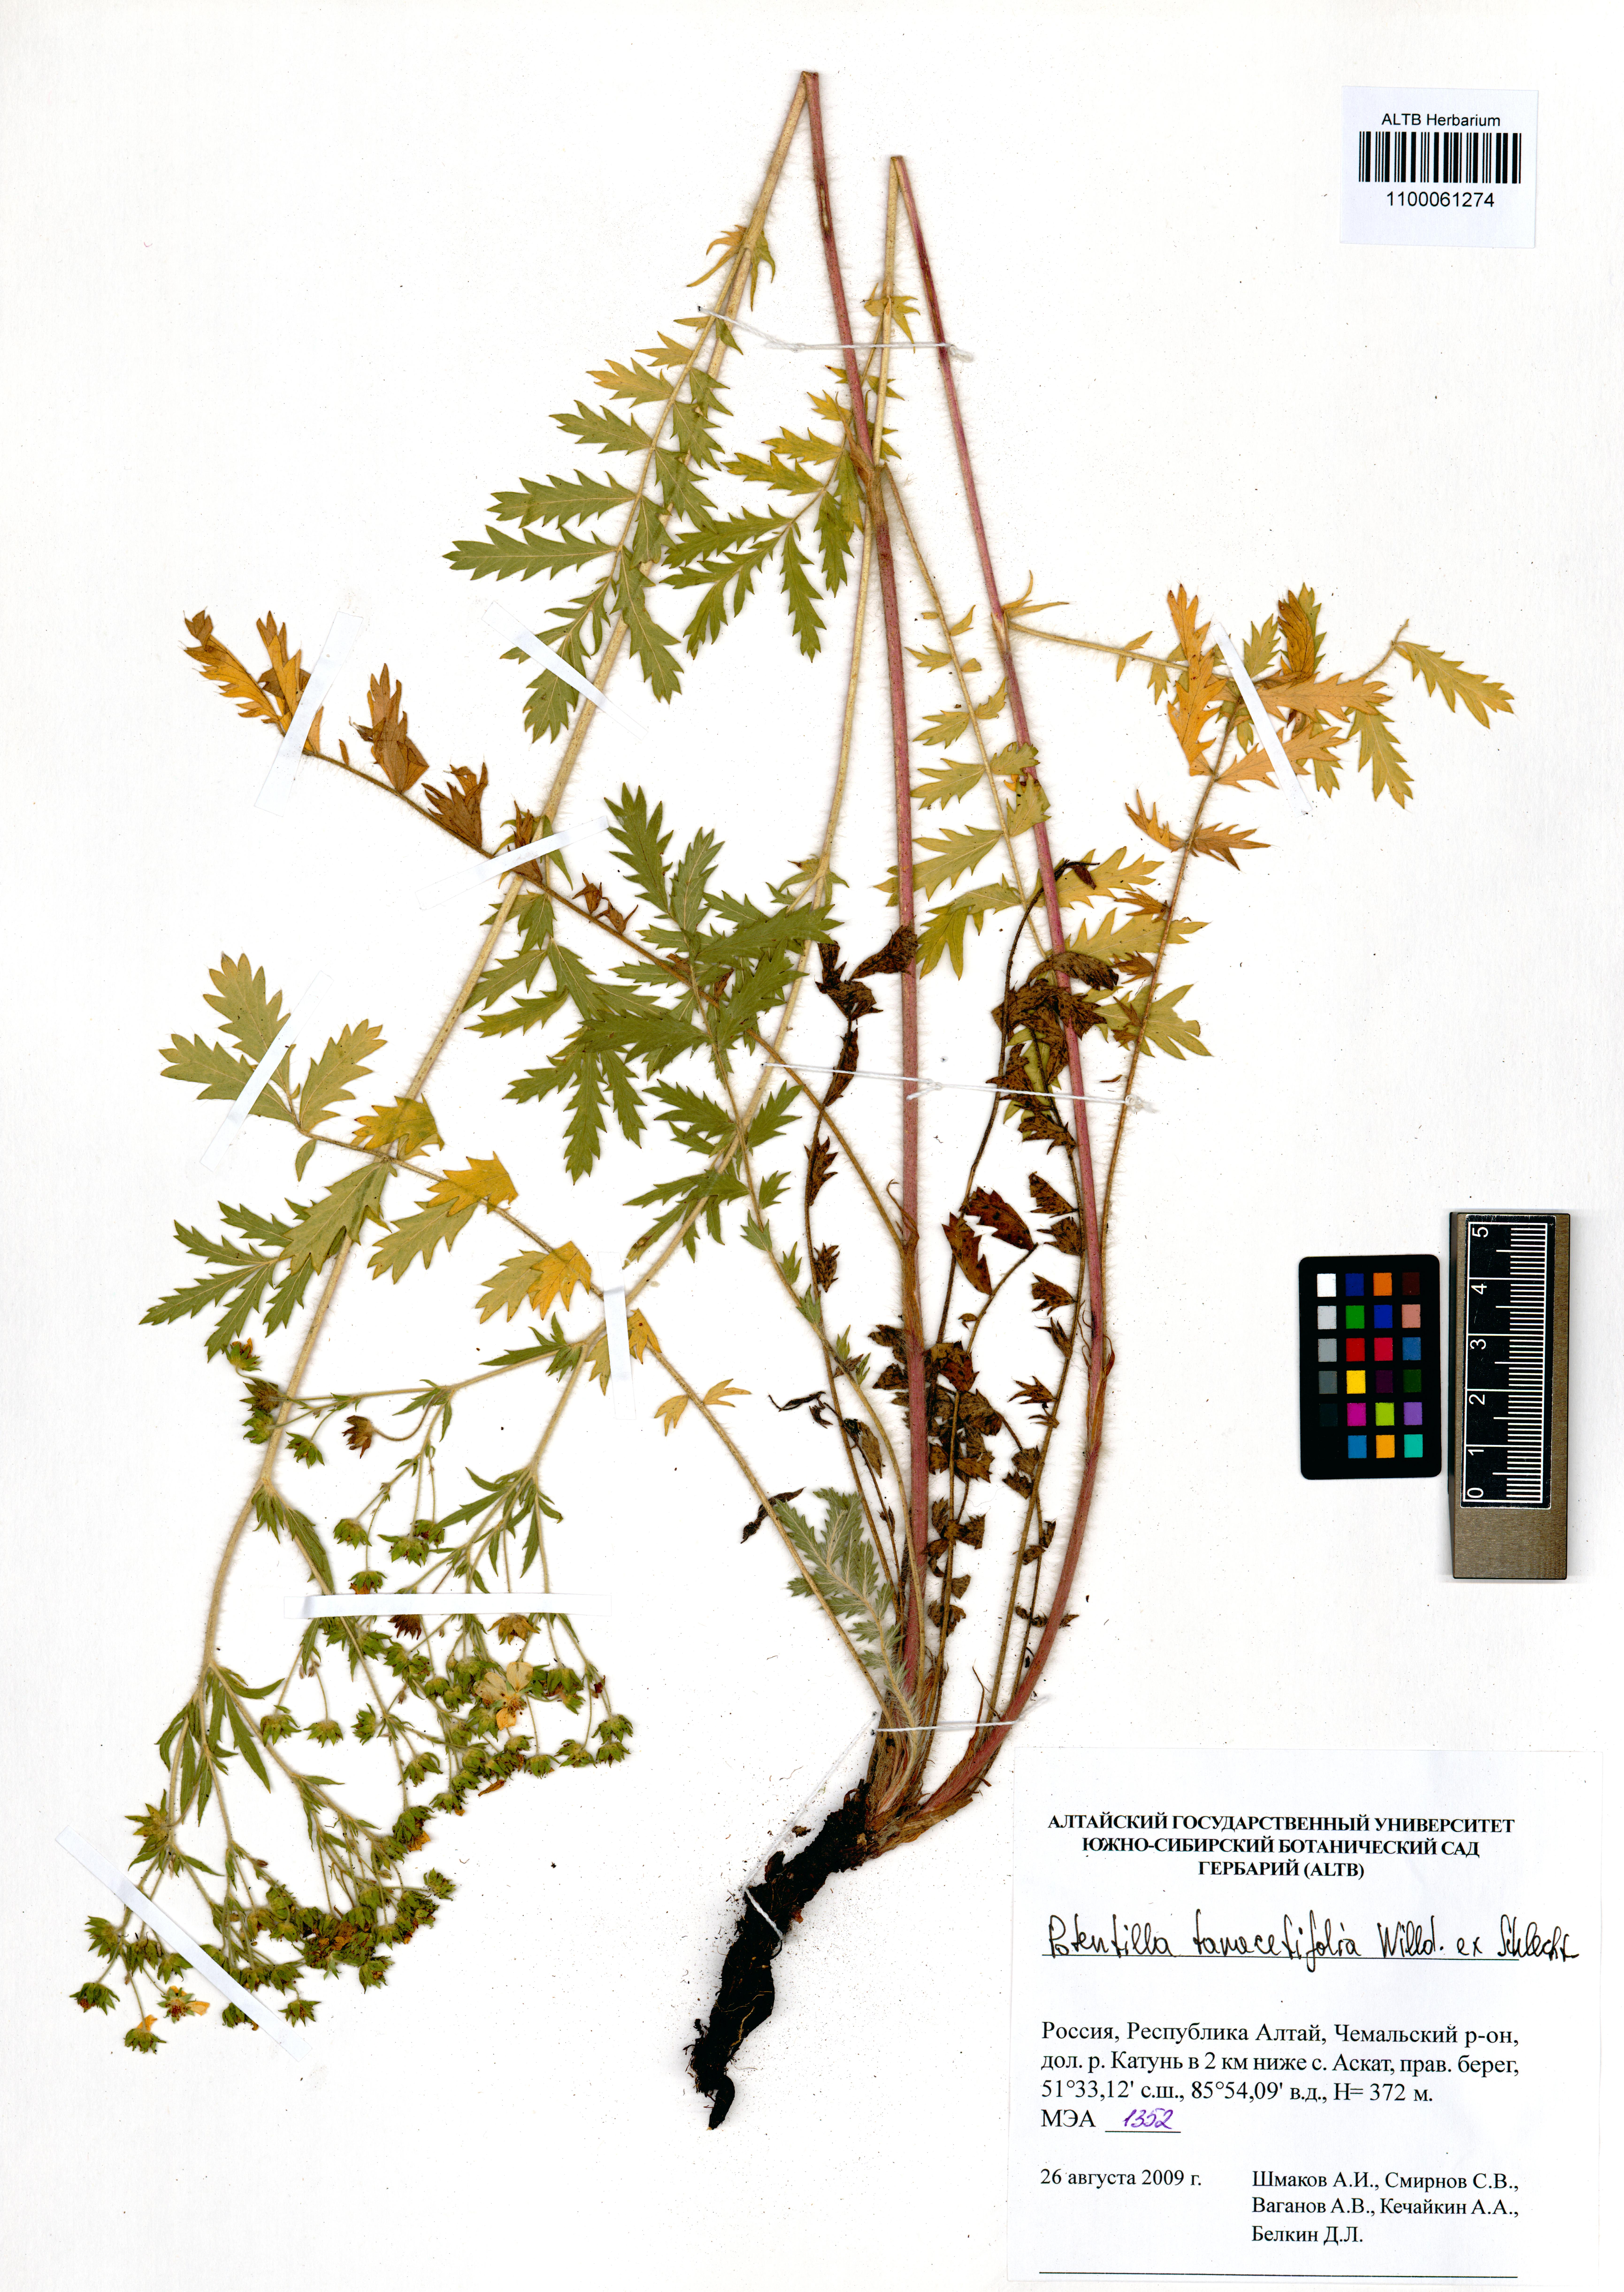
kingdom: Plantae
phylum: Tracheophyta
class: Magnoliopsida
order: Rosales
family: Rosaceae
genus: Potentilla
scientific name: Potentilla tanacetifolia
